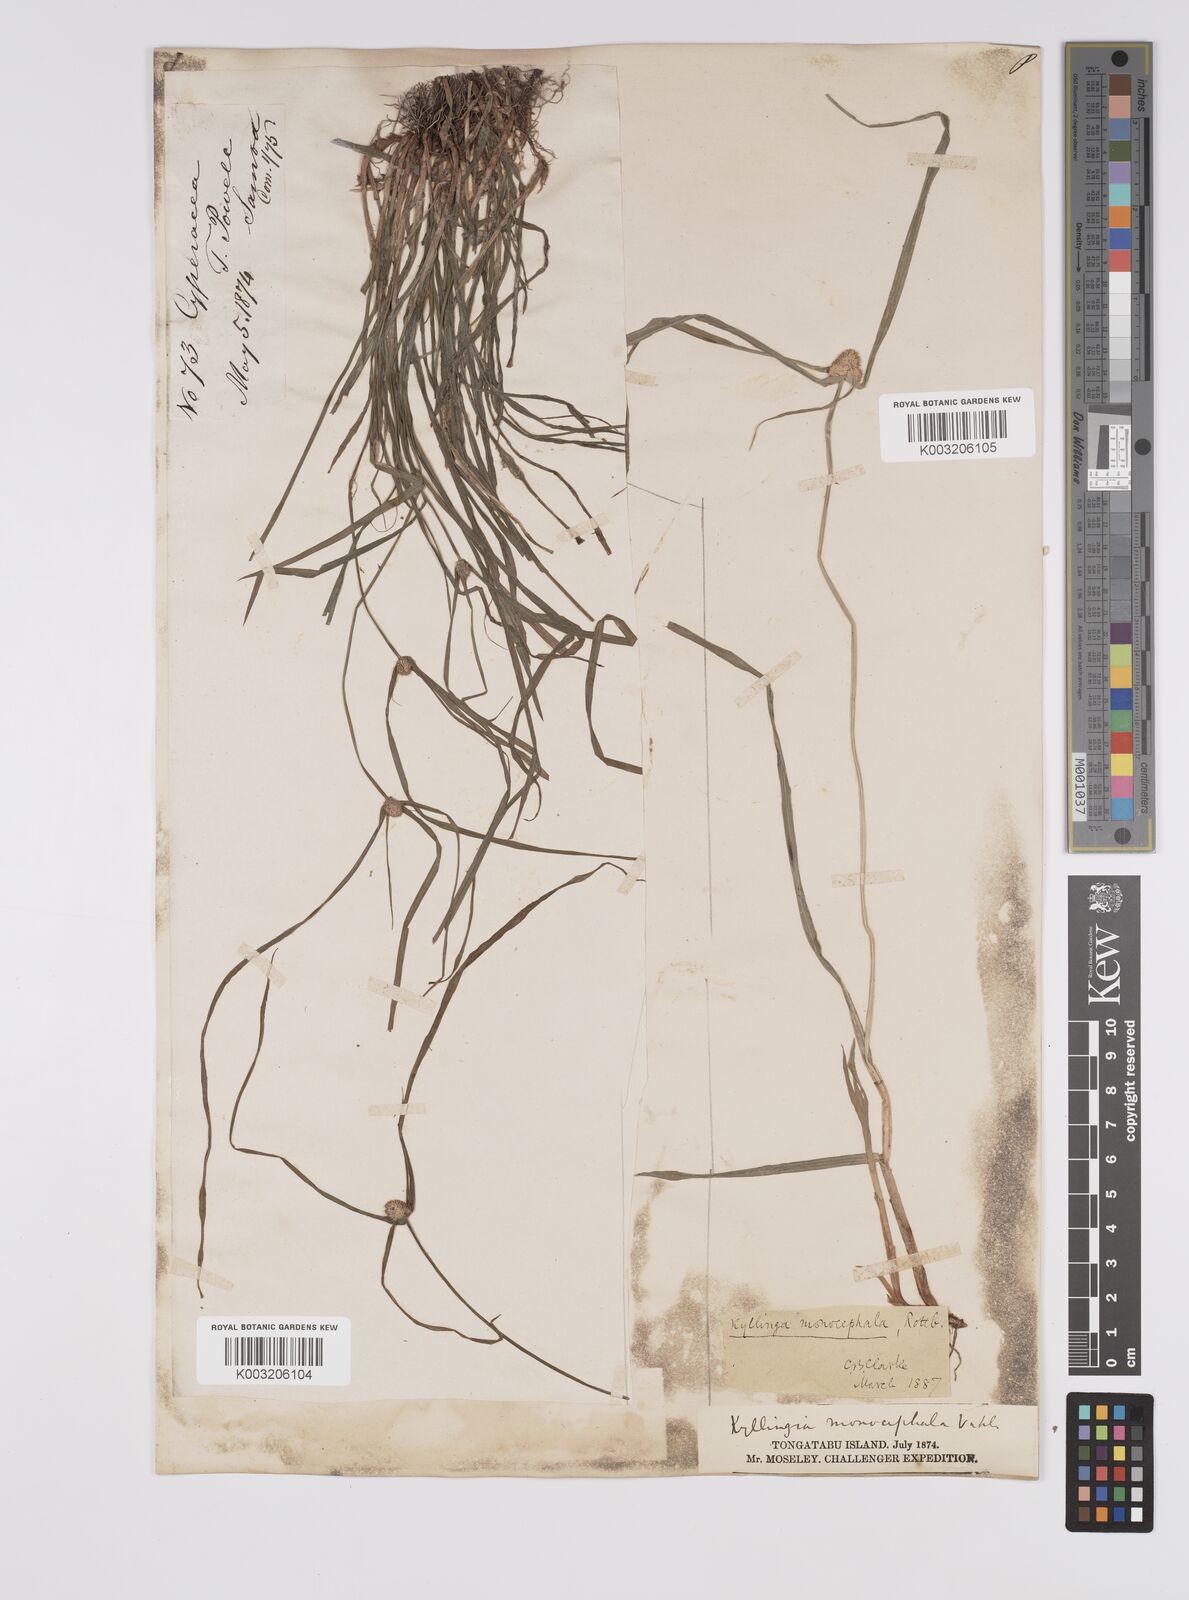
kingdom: Plantae
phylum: Tracheophyta
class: Liliopsida
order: Poales
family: Cyperaceae
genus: Cyperus
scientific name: Cyperus nemoralis
